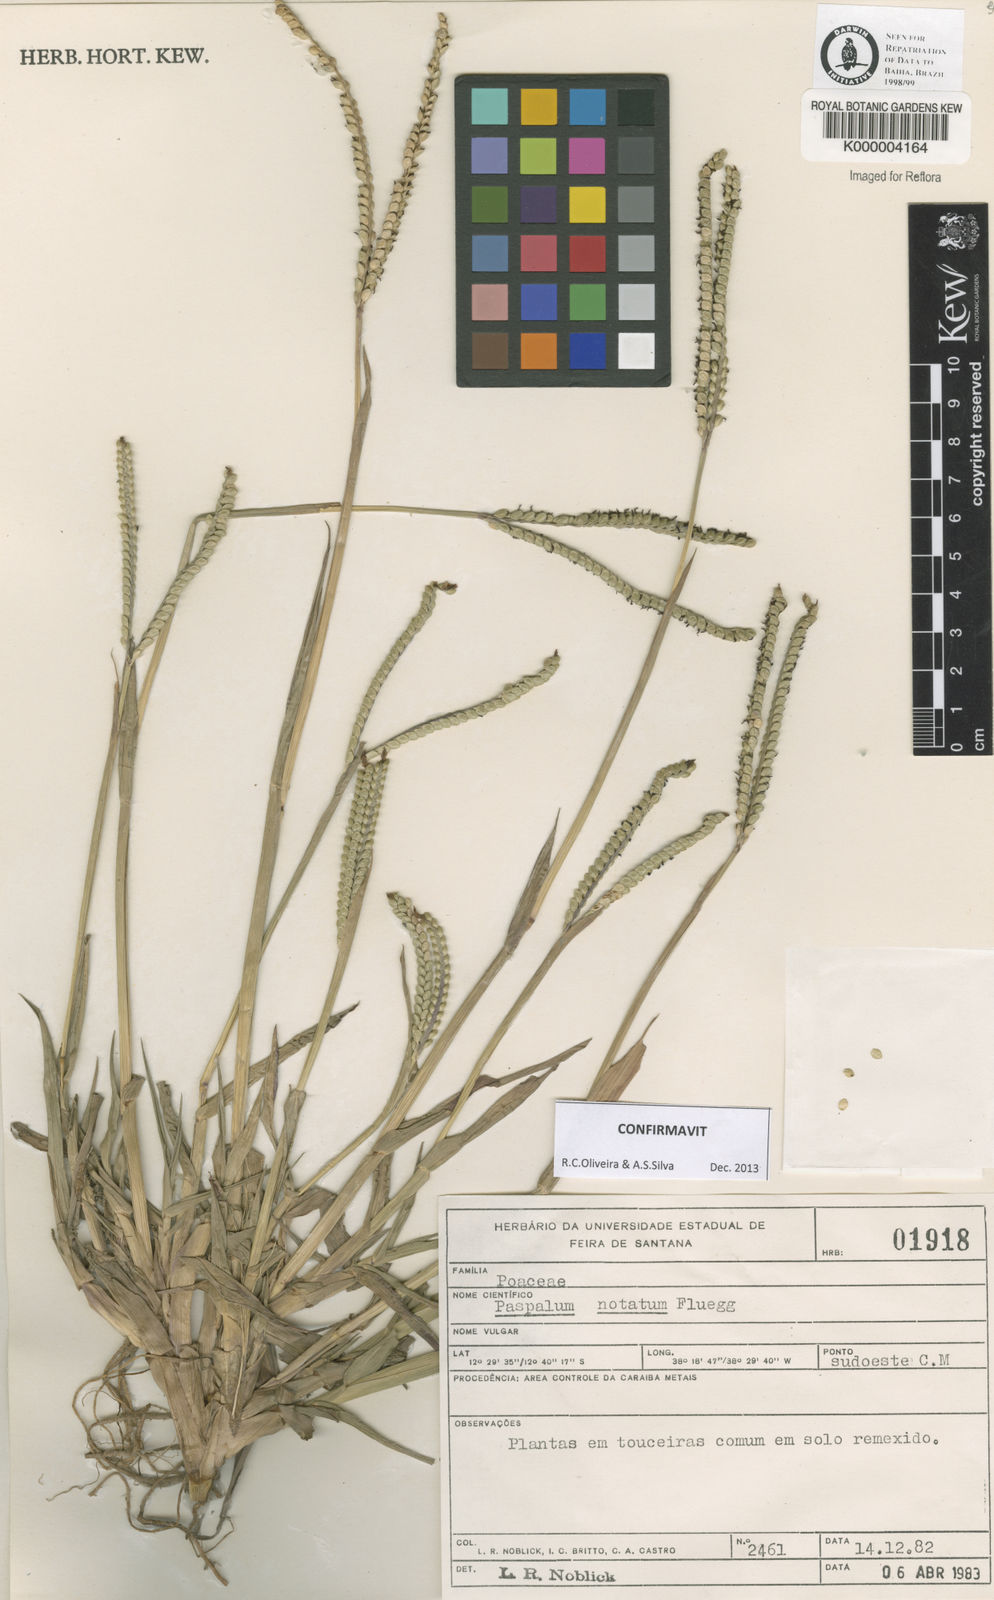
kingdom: Plantae
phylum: Tracheophyta
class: Liliopsida
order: Poales
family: Poaceae
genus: Paspalum
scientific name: Paspalum
